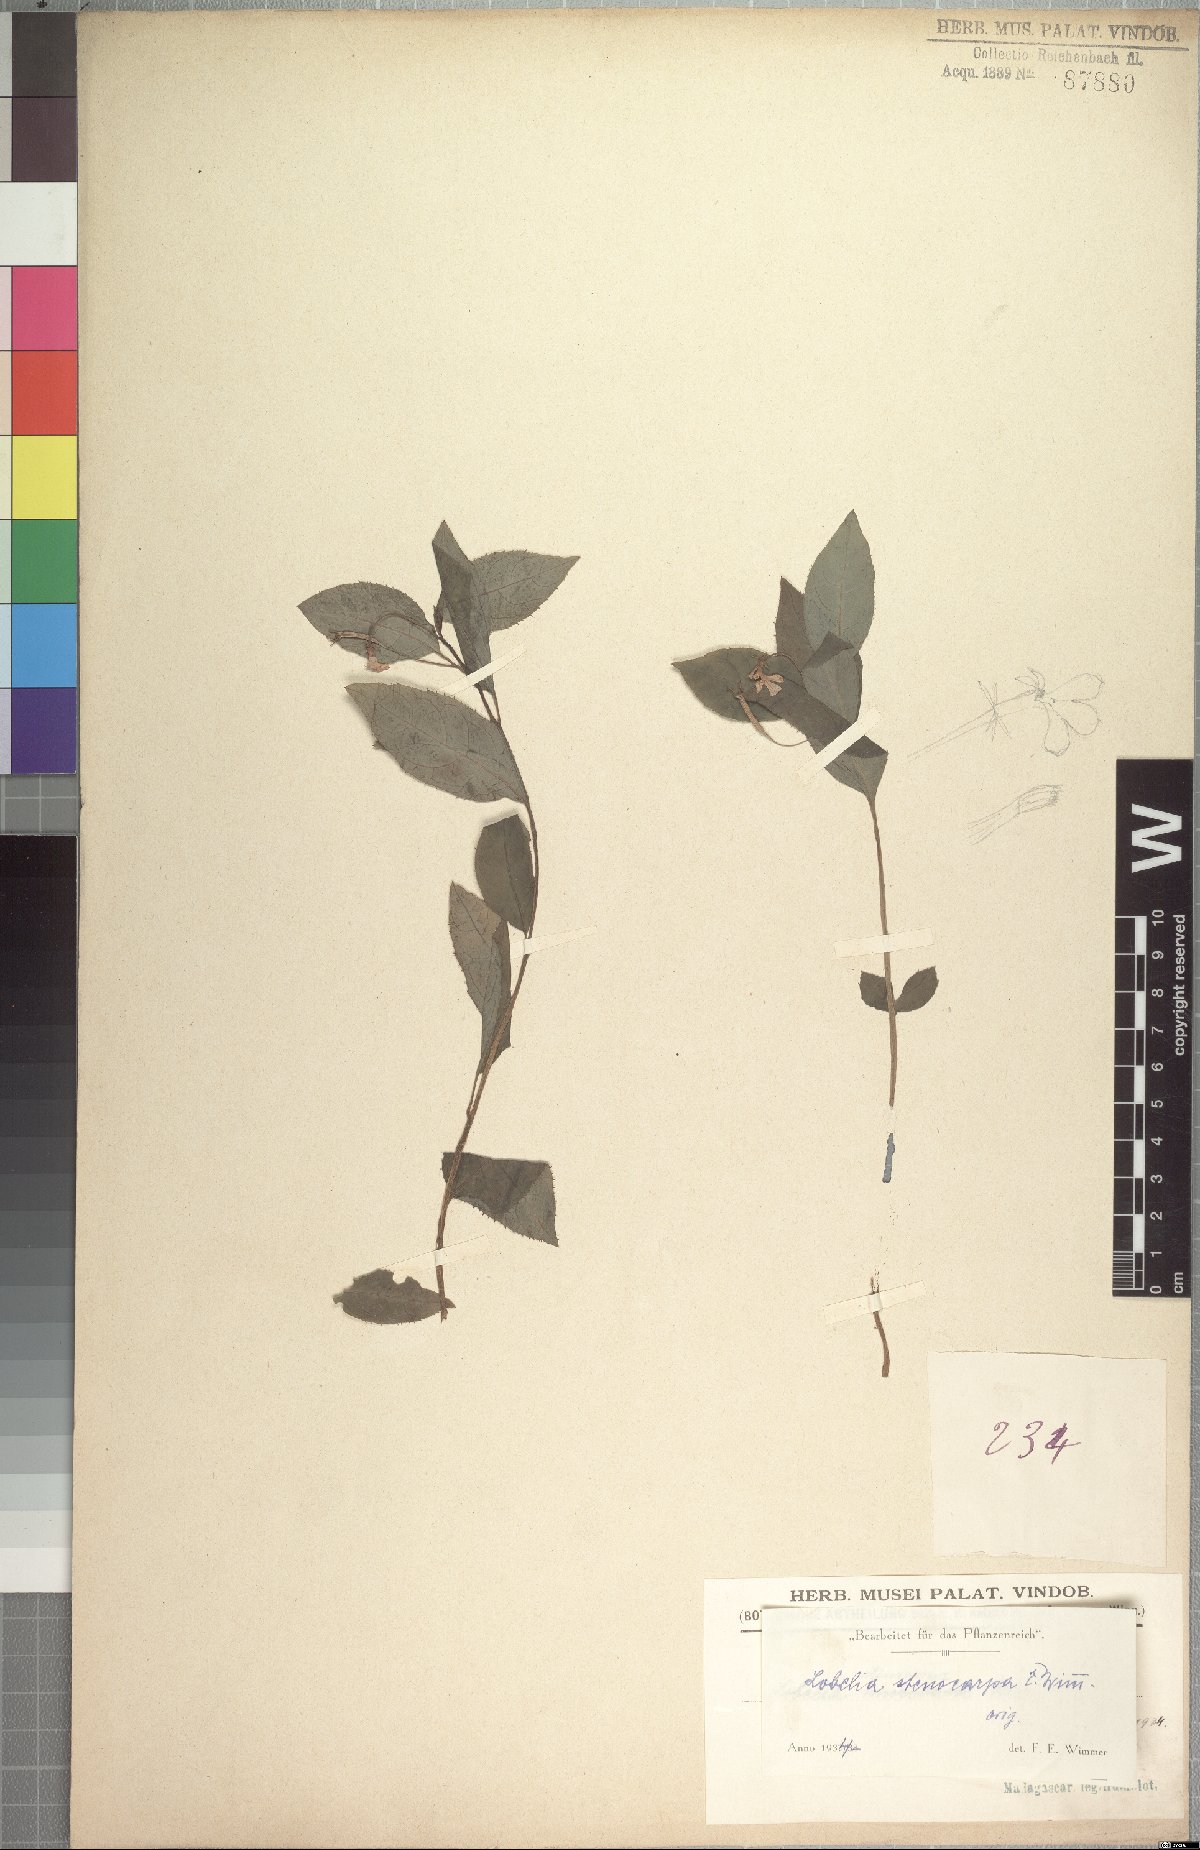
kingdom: Plantae
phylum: Tracheophyta
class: Magnoliopsida
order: Asterales
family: Campanulaceae
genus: Lobelia
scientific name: Lobelia stenocarpa
